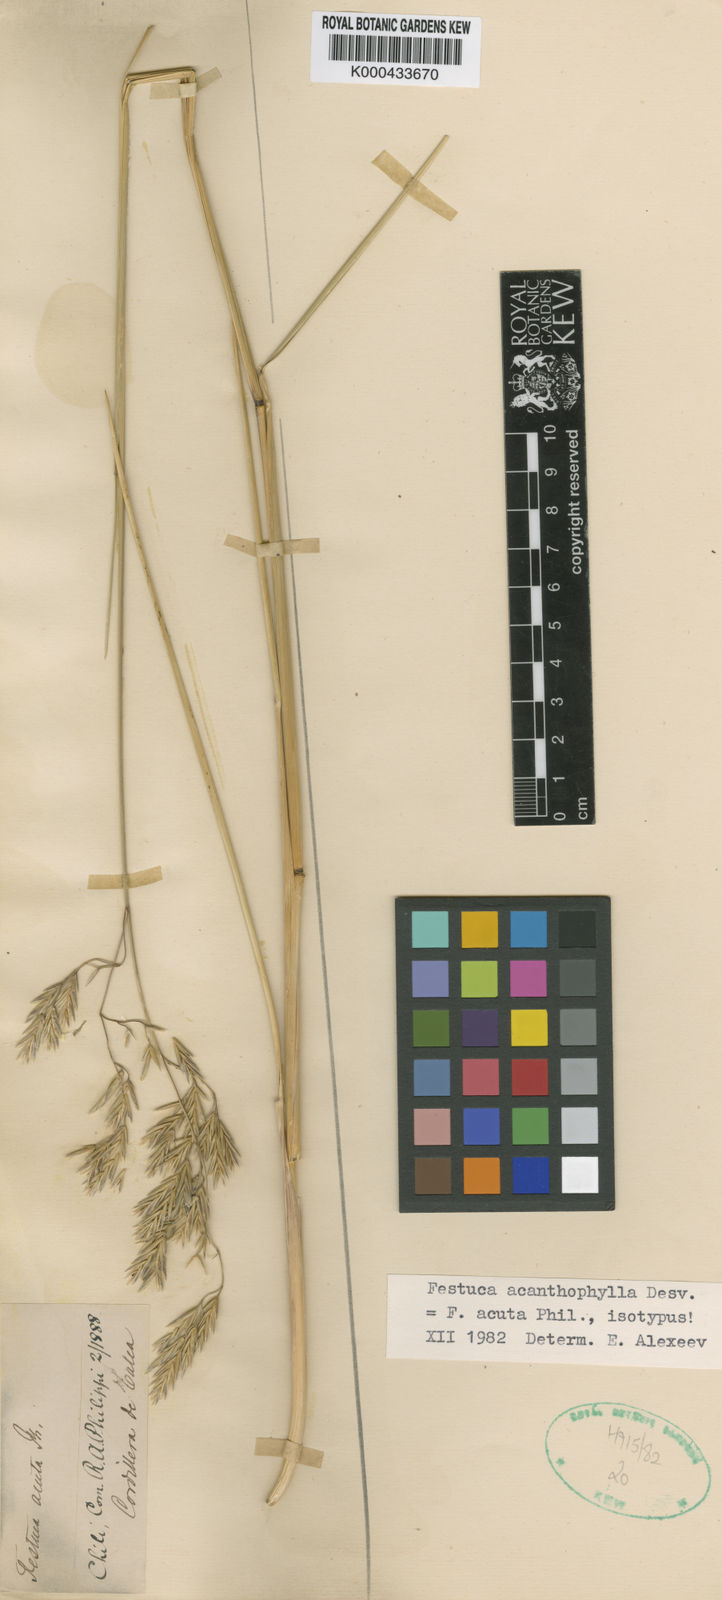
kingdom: Plantae
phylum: Tracheophyta
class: Liliopsida
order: Poales
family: Poaceae
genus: Festuca
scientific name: Festuca acanthophylla
